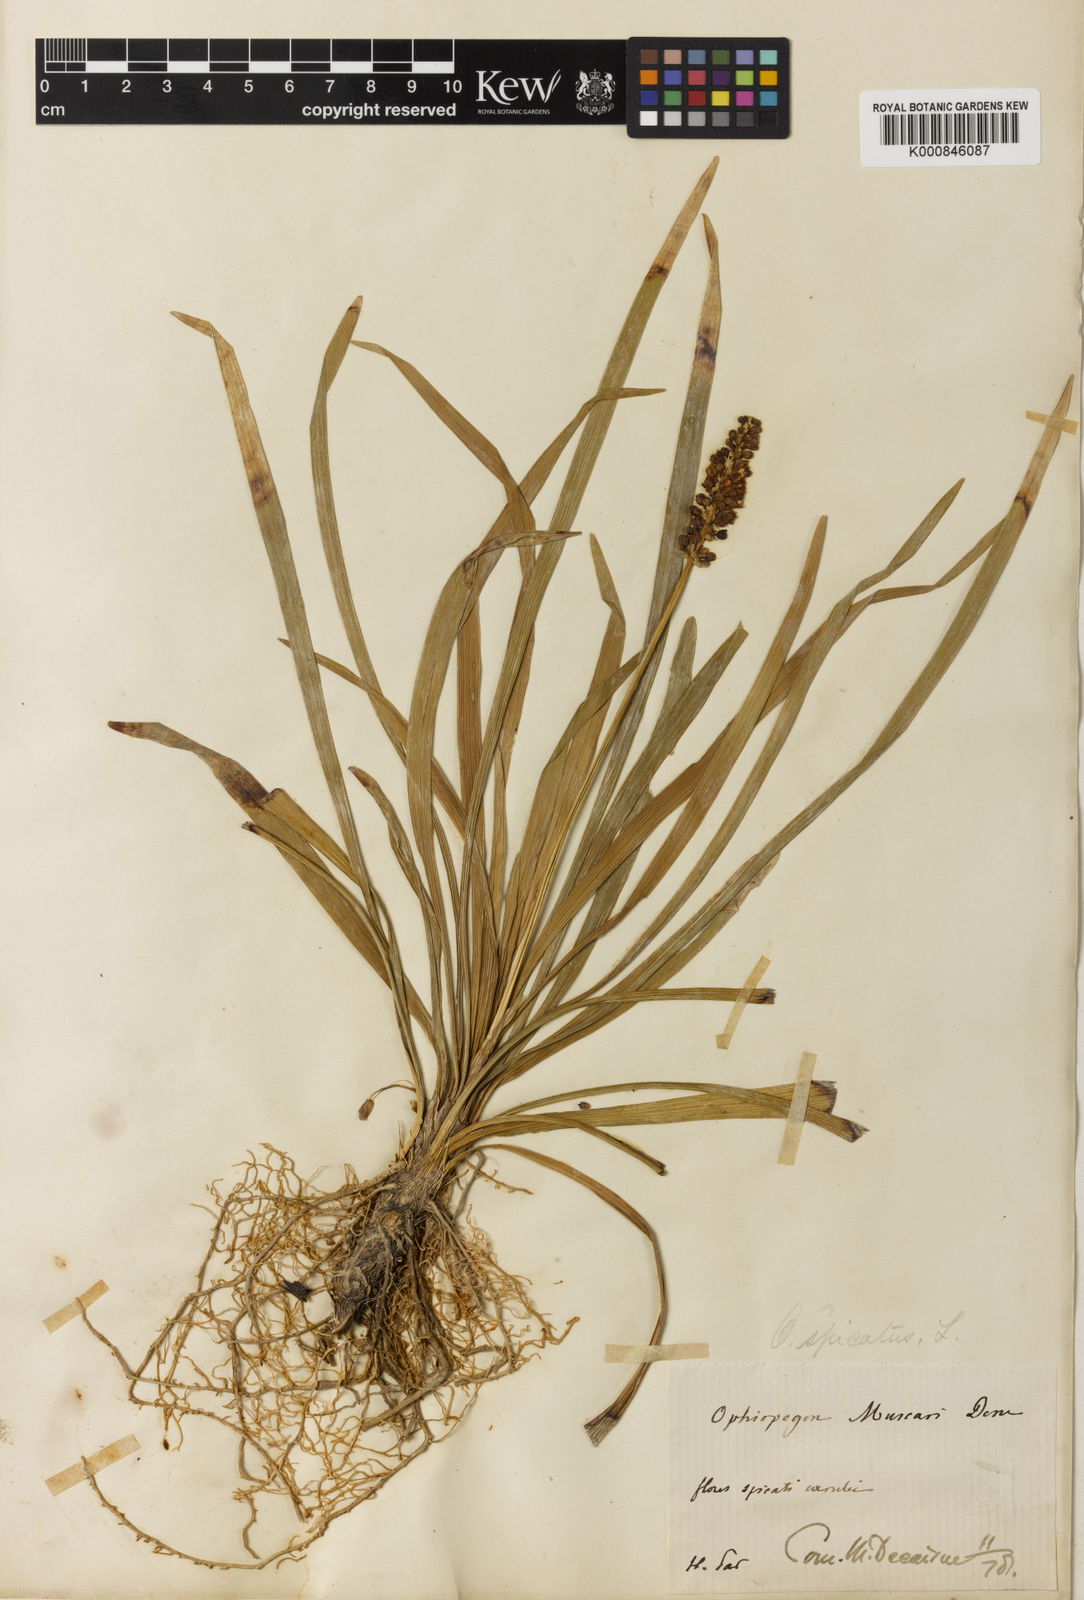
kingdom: Plantae
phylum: Tracheophyta
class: Liliopsida
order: Asparagales
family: Asparagaceae
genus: Liriope
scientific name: Liriope muscari
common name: Big blue lilyturf
